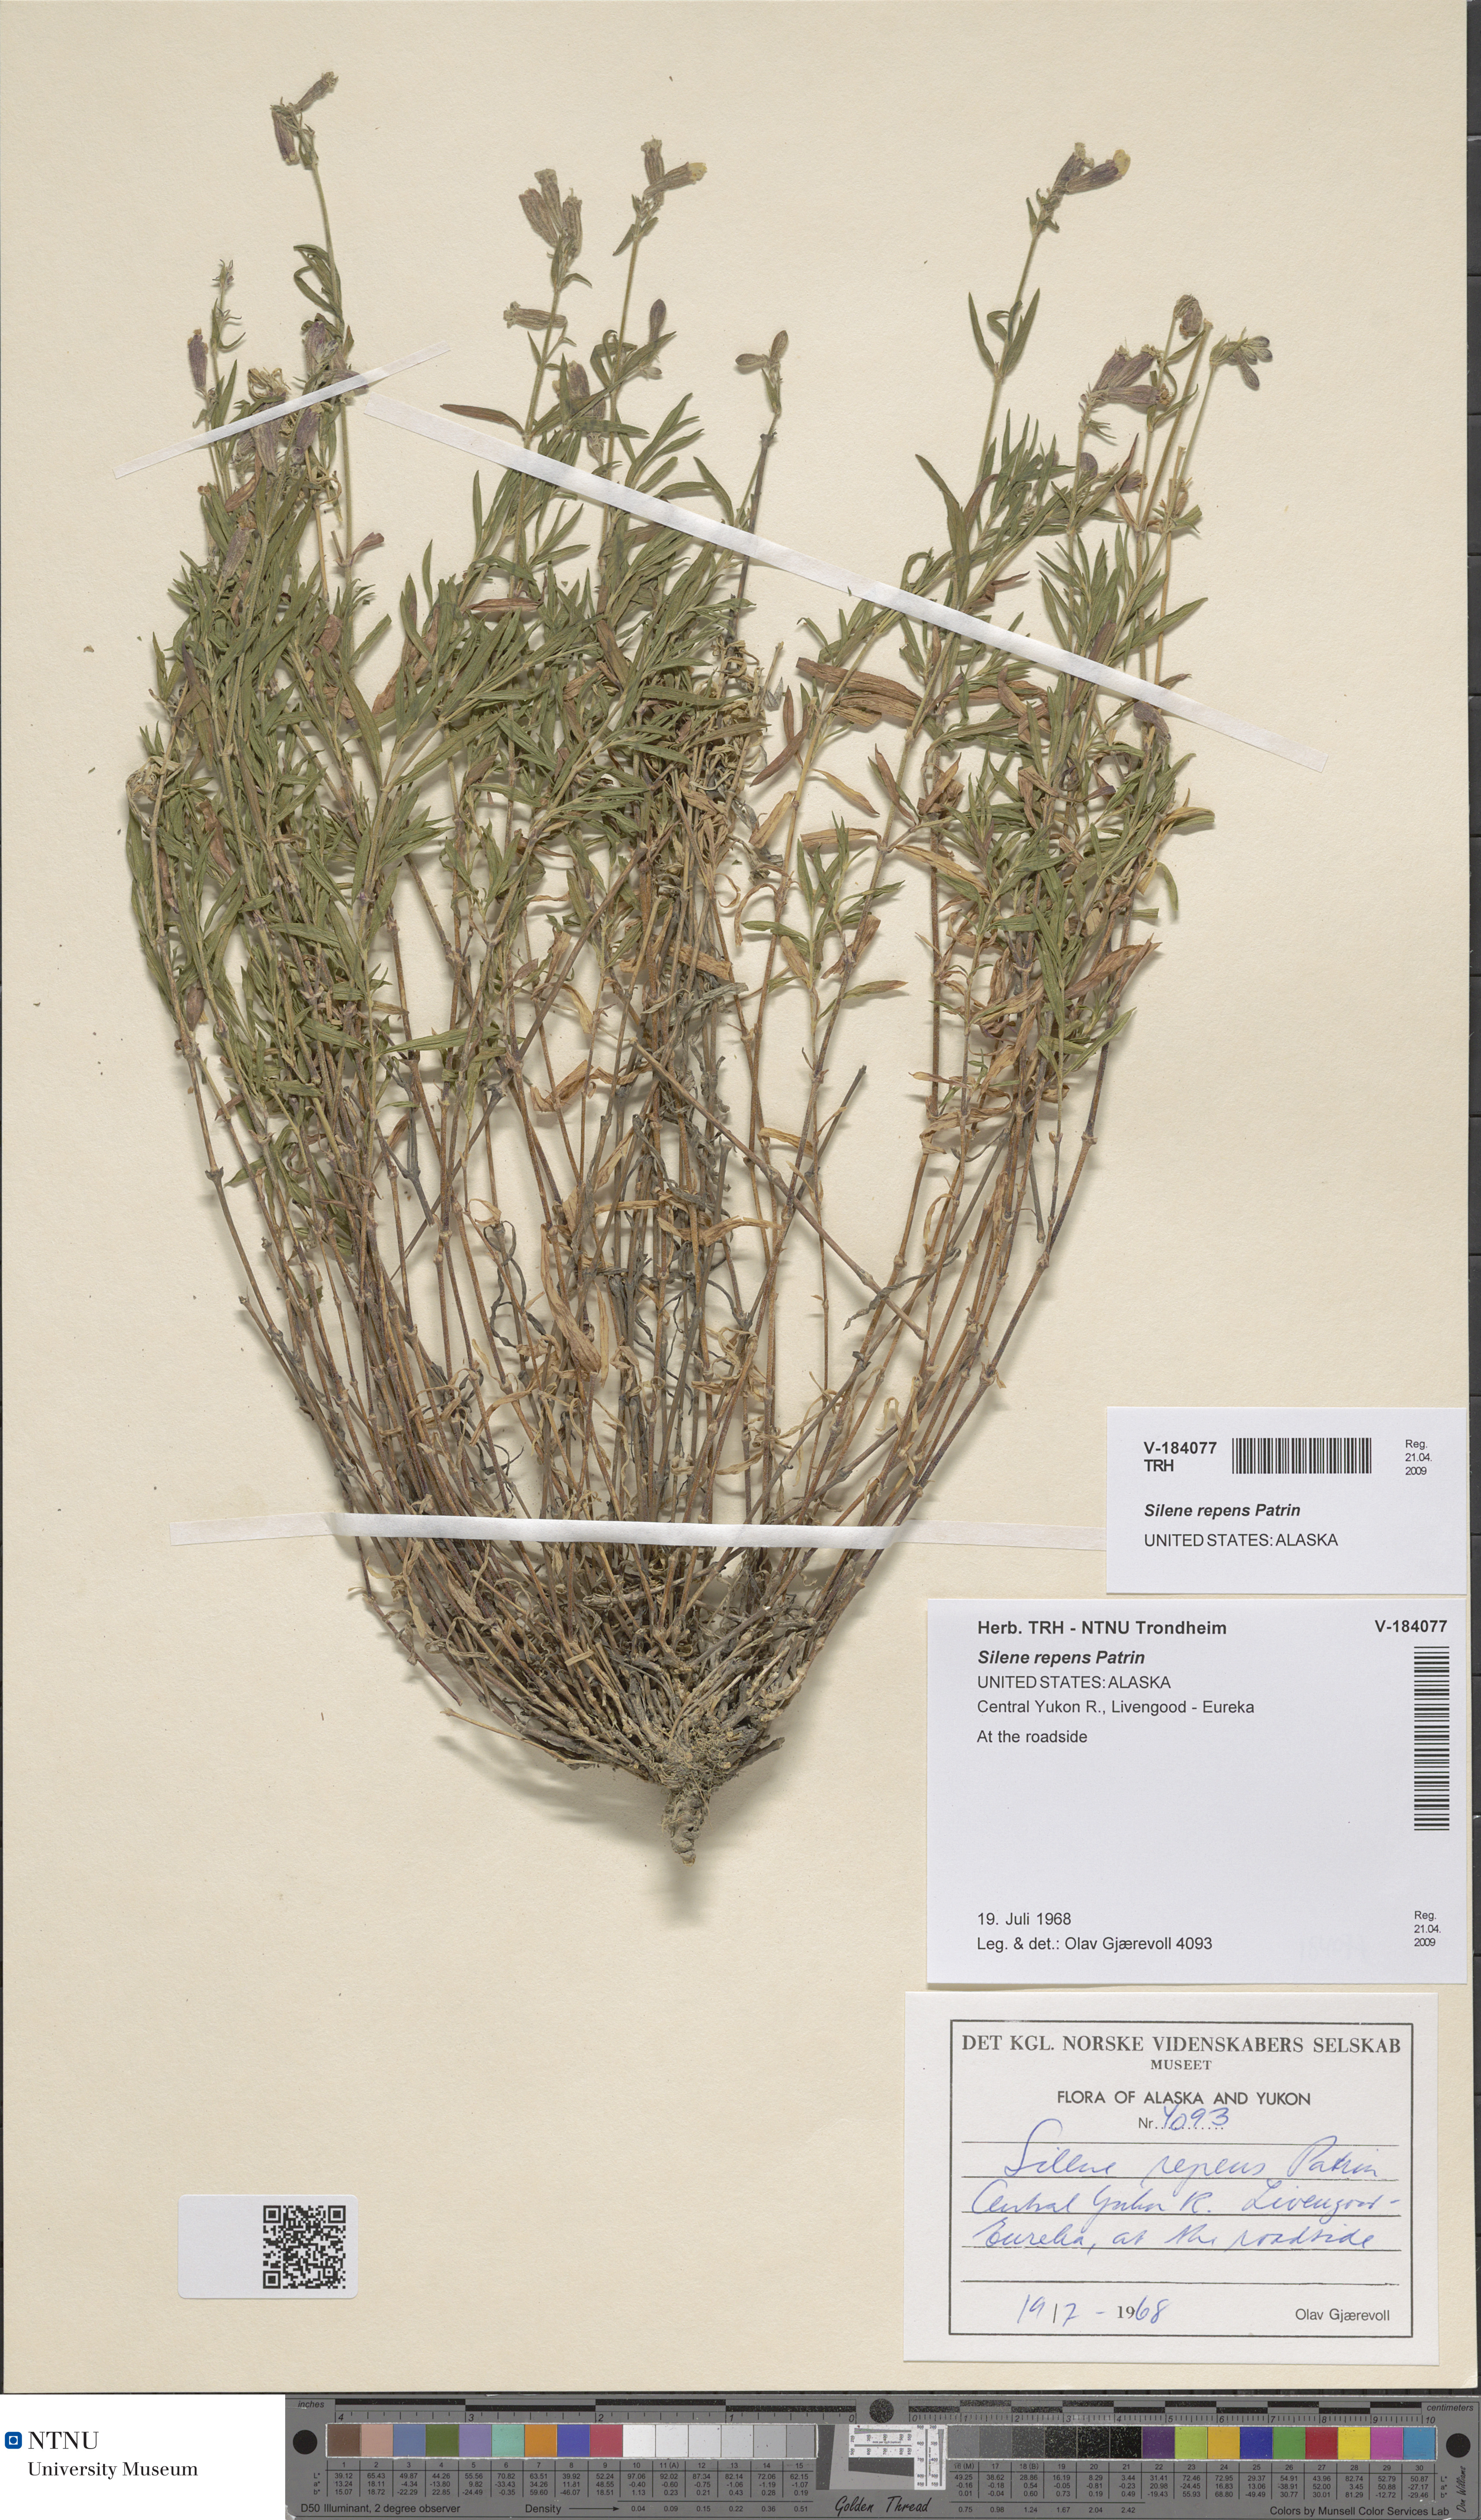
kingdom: Plantae
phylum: Tracheophyta
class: Magnoliopsida
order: Caryophyllales
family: Caryophyllaceae
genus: Silene
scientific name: Silene repens
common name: Pink campion
